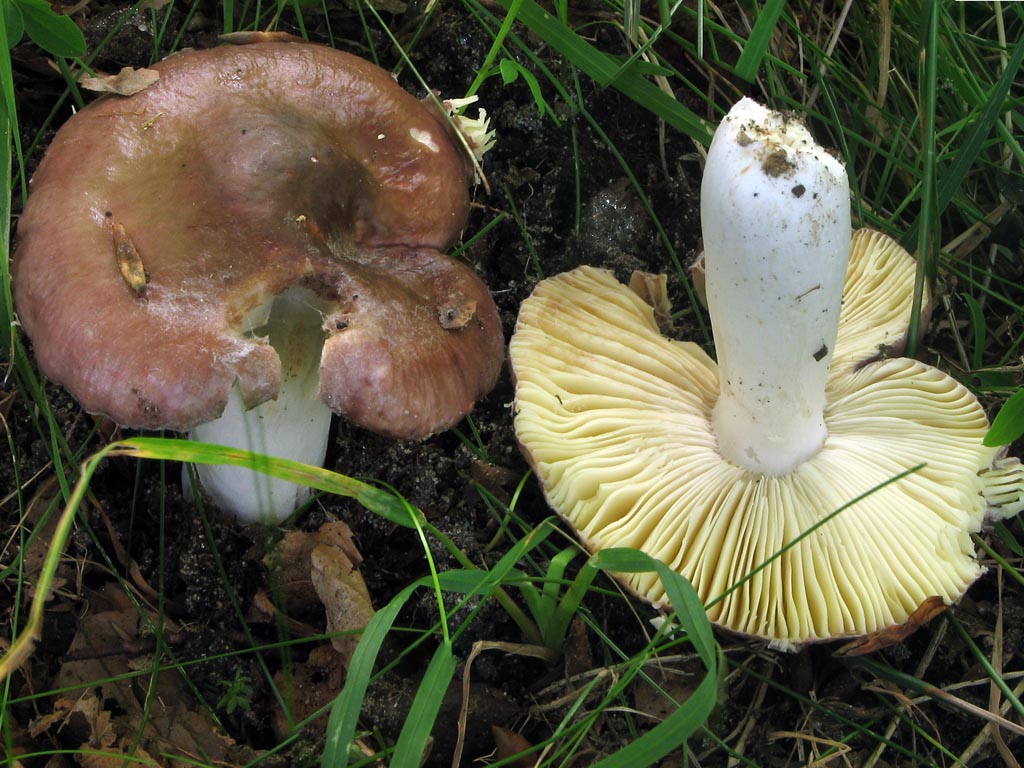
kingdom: Fungi
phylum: Basidiomycota
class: Agaricomycetes
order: Russulales
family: Russulaceae
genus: Russula
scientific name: Russula romellii
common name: romells skørhat
